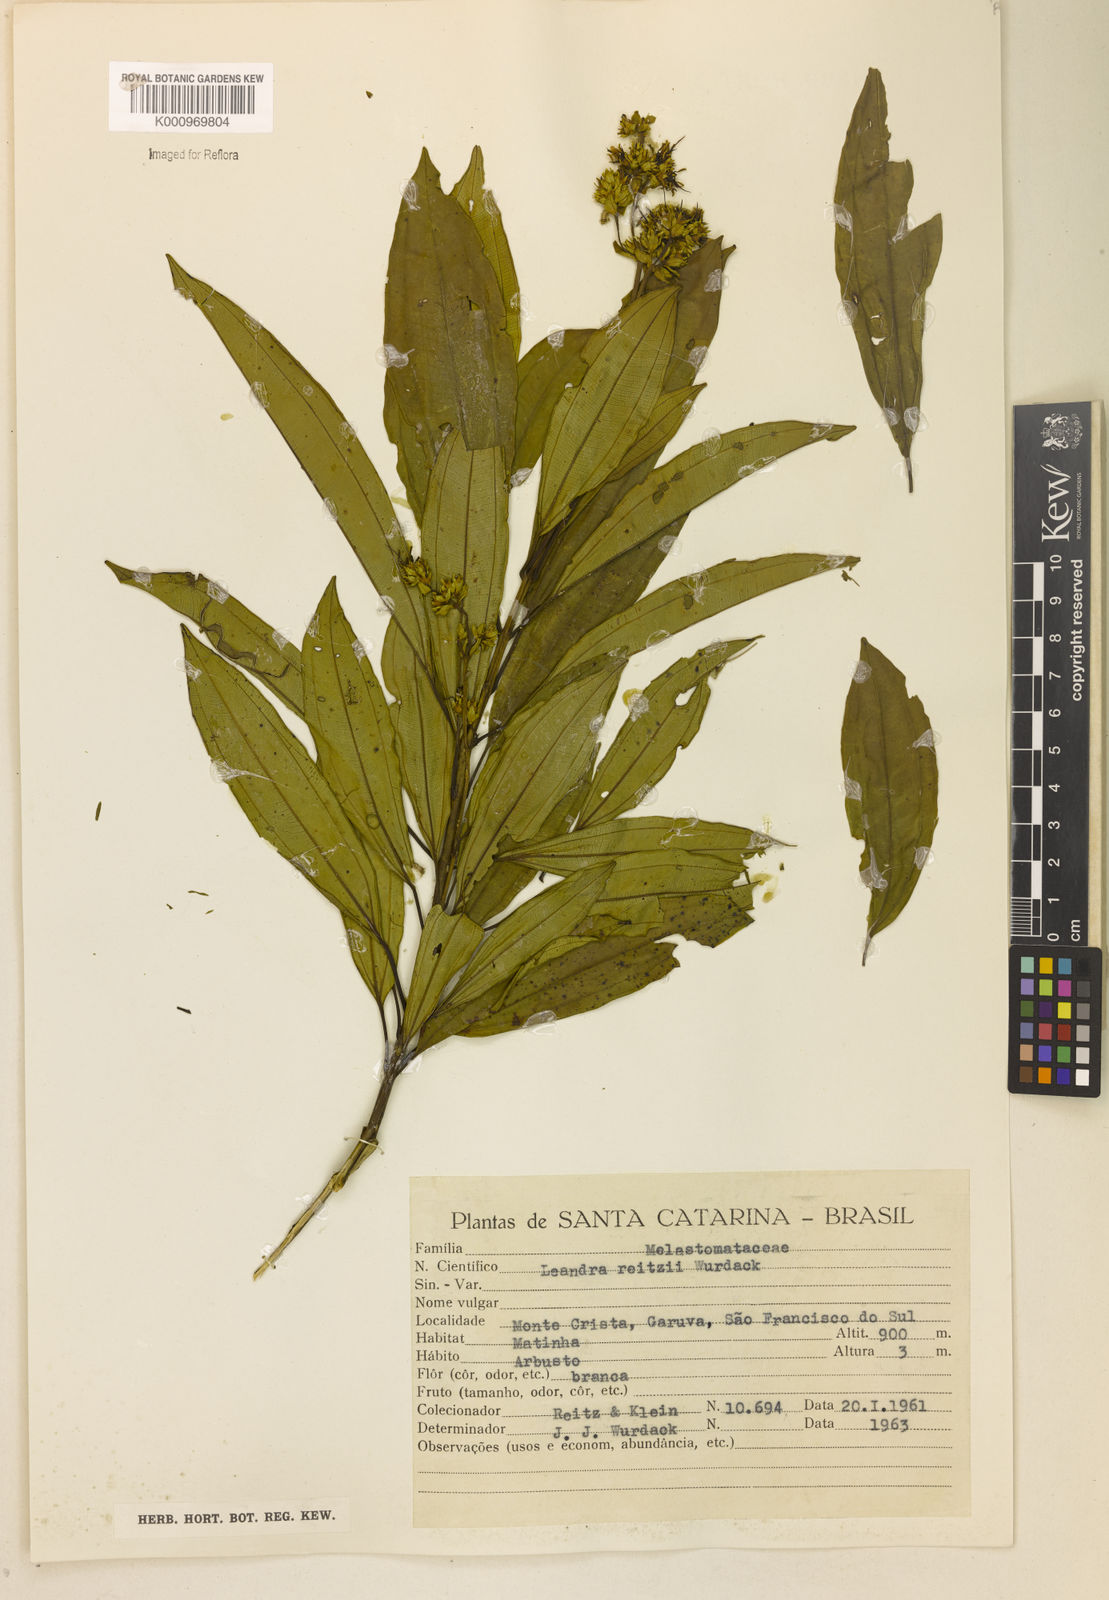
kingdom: Plantae
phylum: Tracheophyta
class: Magnoliopsida
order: Myrtales
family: Melastomataceae
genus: Miconia
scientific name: Miconia reitzii
